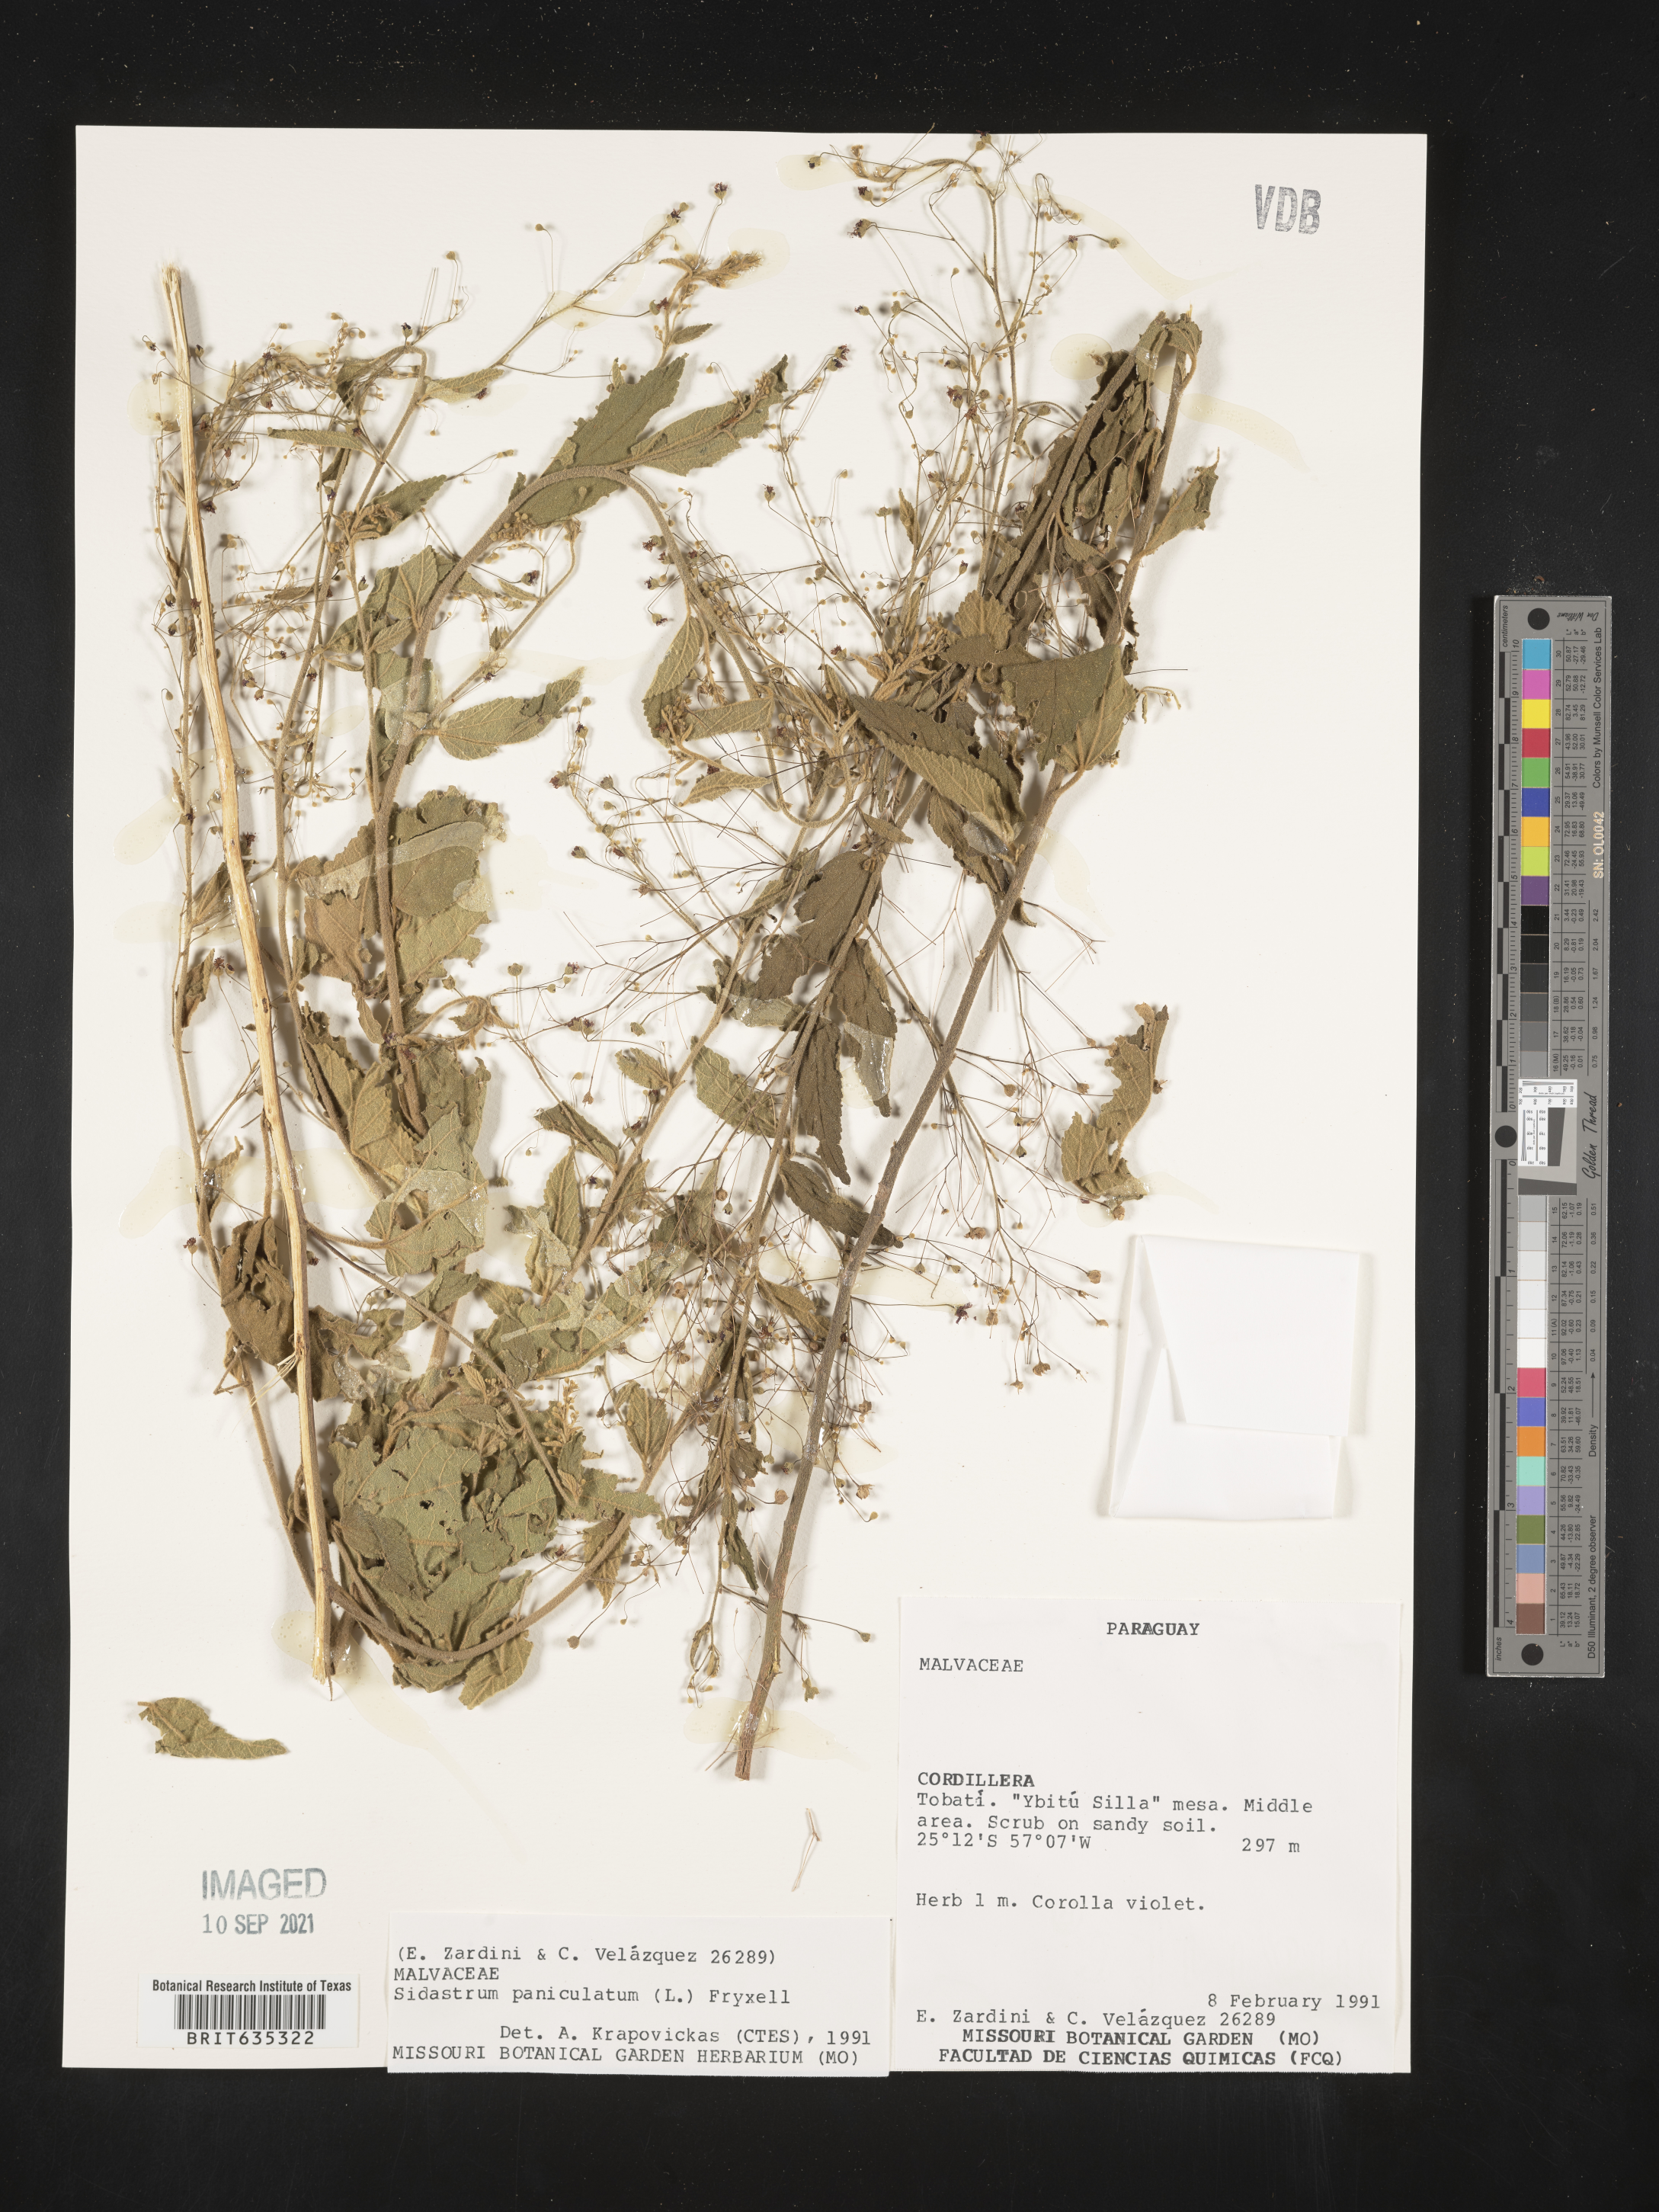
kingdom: Plantae
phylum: Tracheophyta
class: Magnoliopsida
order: Malvales
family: Malvaceae
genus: Sidastrum
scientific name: Sidastrum
